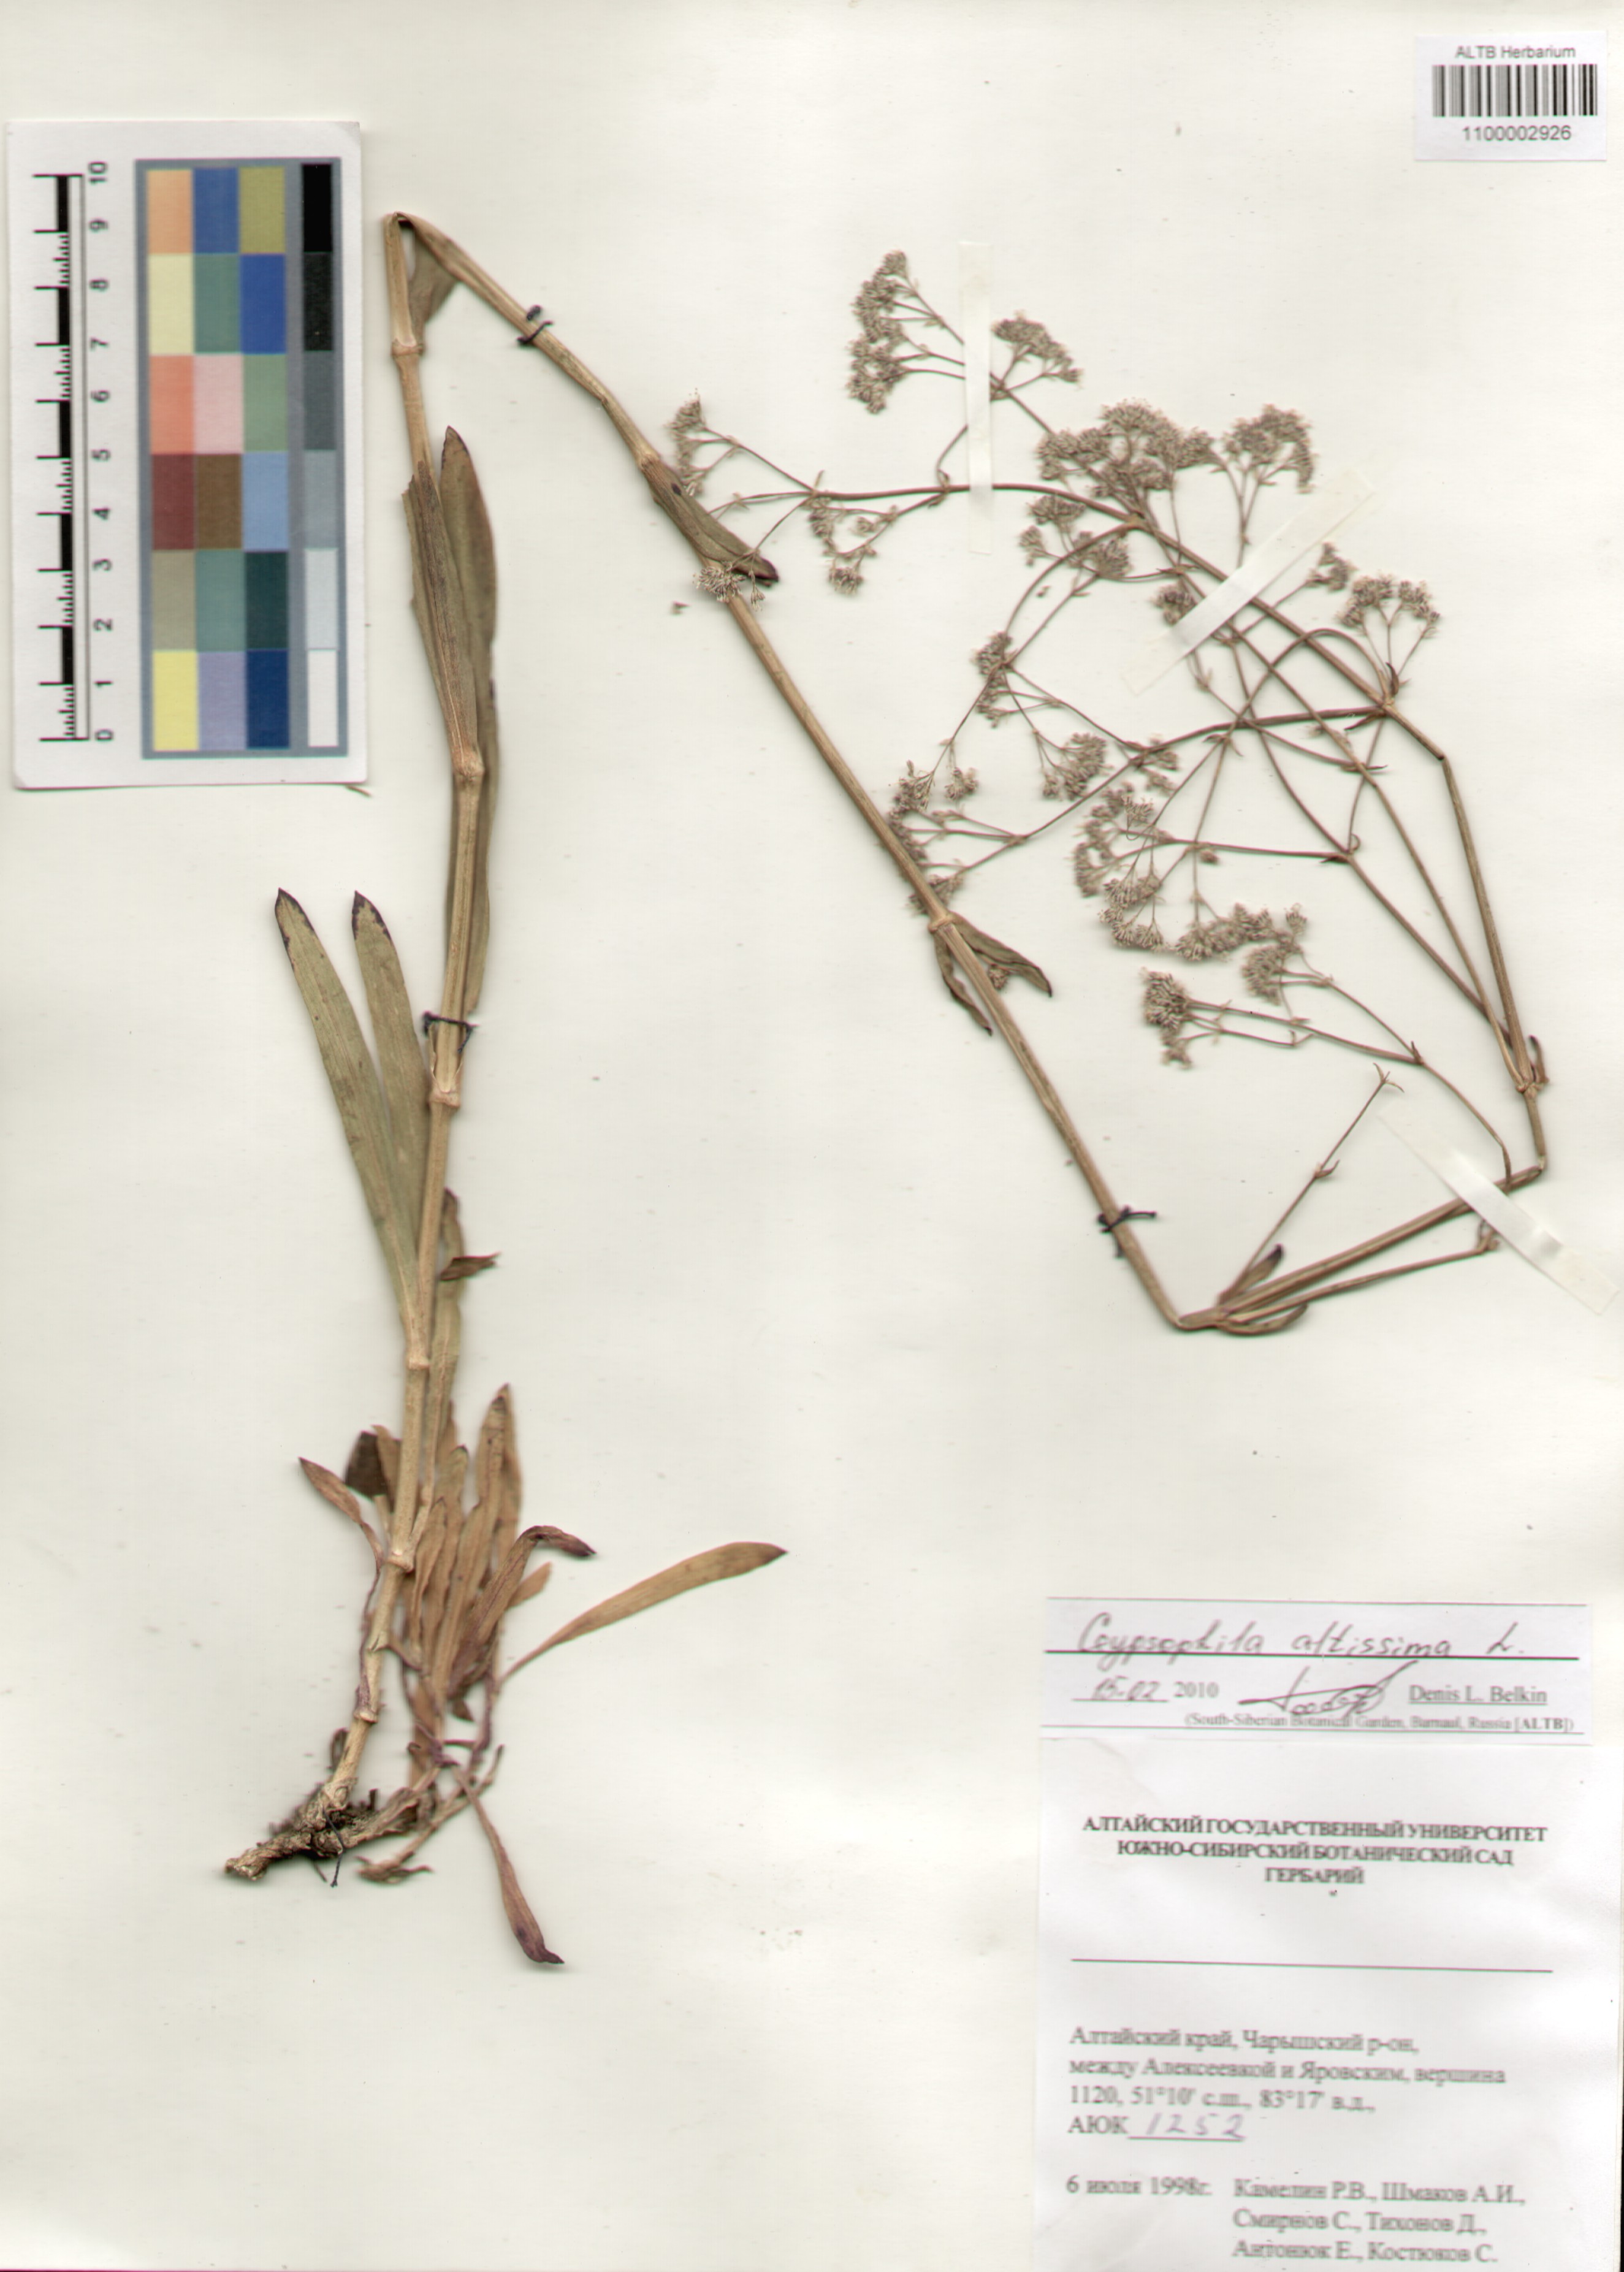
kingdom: Plantae
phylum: Tracheophyta
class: Magnoliopsida
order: Caryophyllales
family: Caryophyllaceae
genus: Gypsophila
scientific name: Gypsophila altissima
